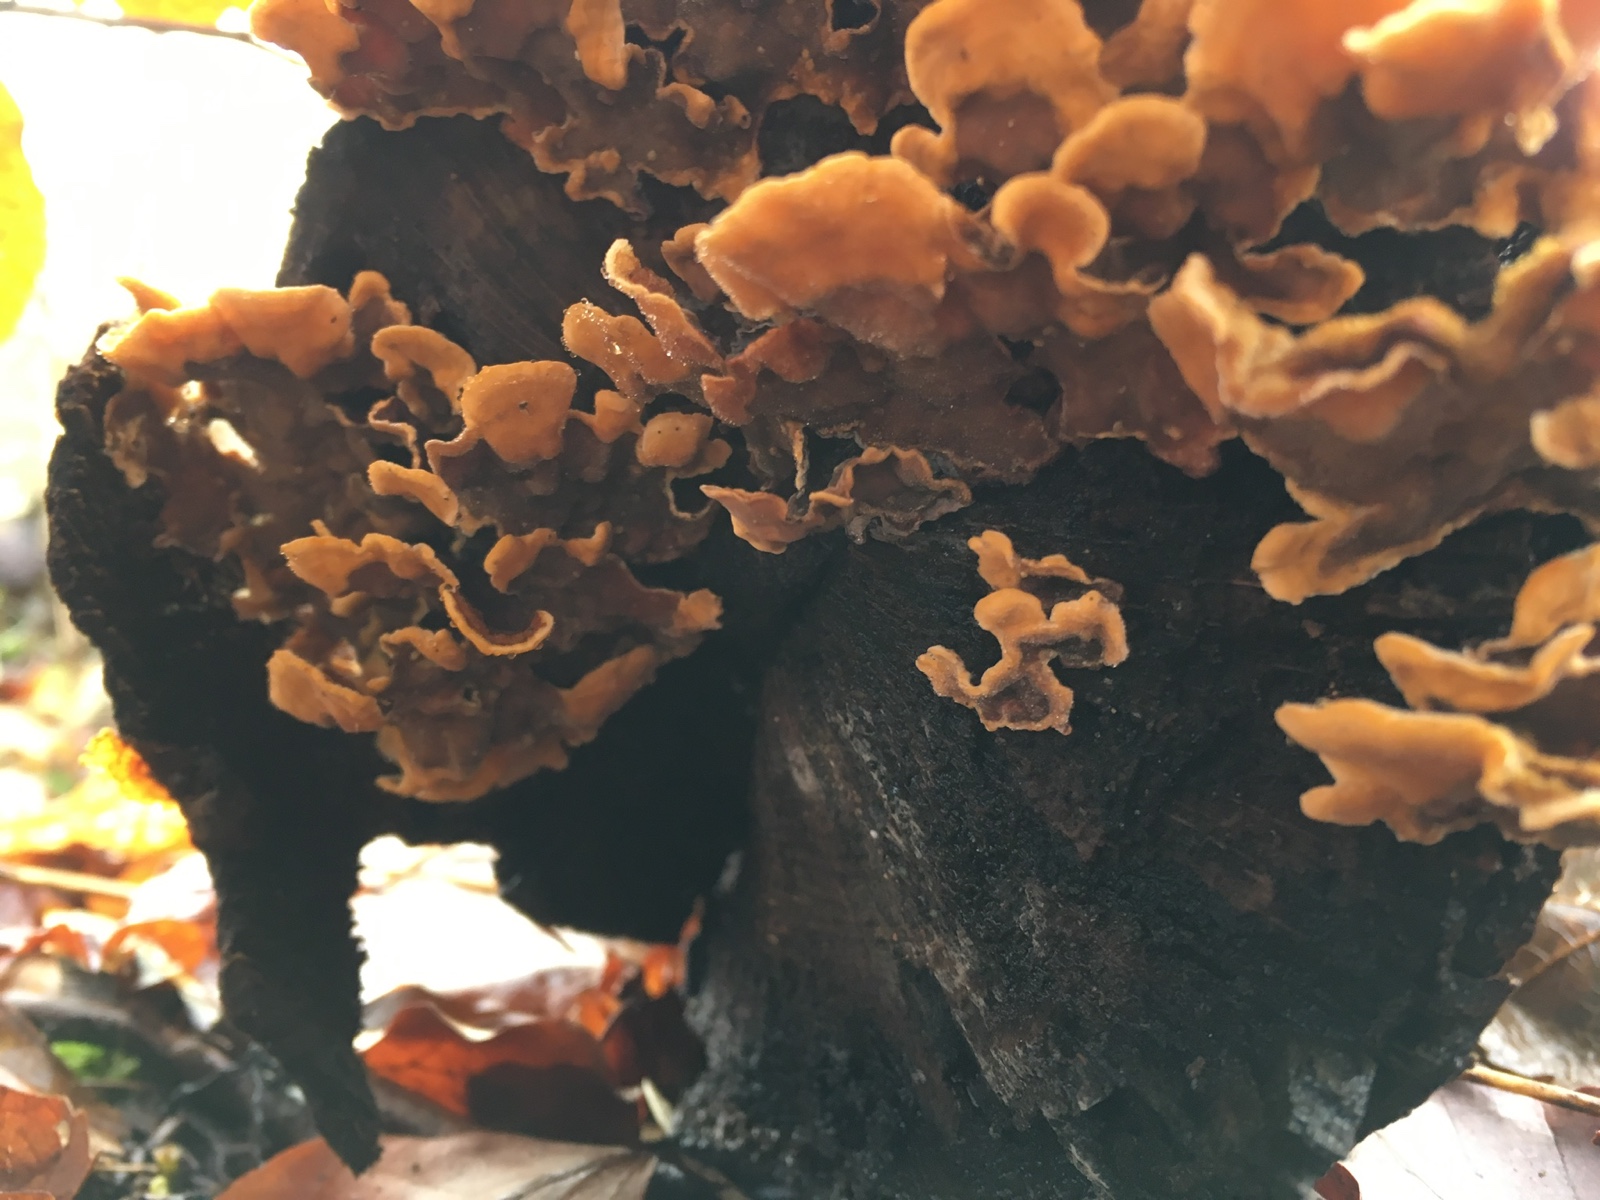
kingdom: Fungi
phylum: Basidiomycota
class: Agaricomycetes
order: Russulales
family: Stereaceae
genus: Stereum
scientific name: Stereum hirsutum
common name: håret lædersvamp
